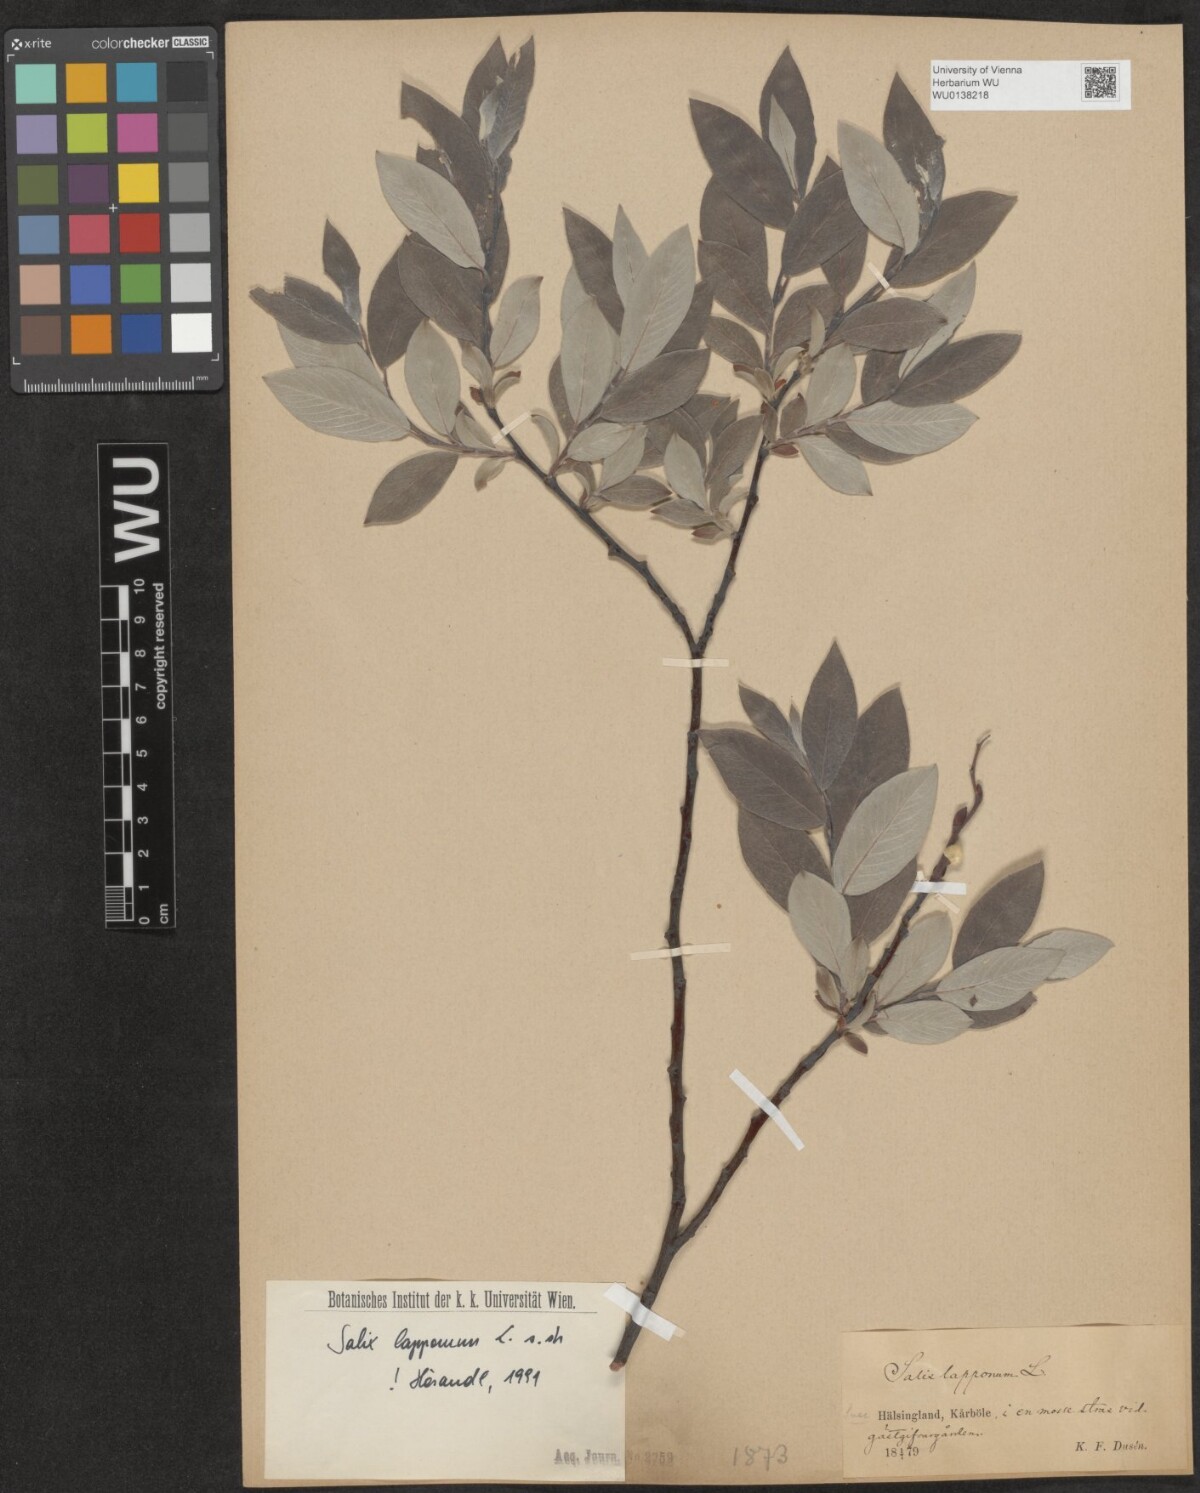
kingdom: Plantae
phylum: Tracheophyta
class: Magnoliopsida
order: Malpighiales
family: Salicaceae
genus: Salix
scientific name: Salix lapponum
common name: Downy willow
